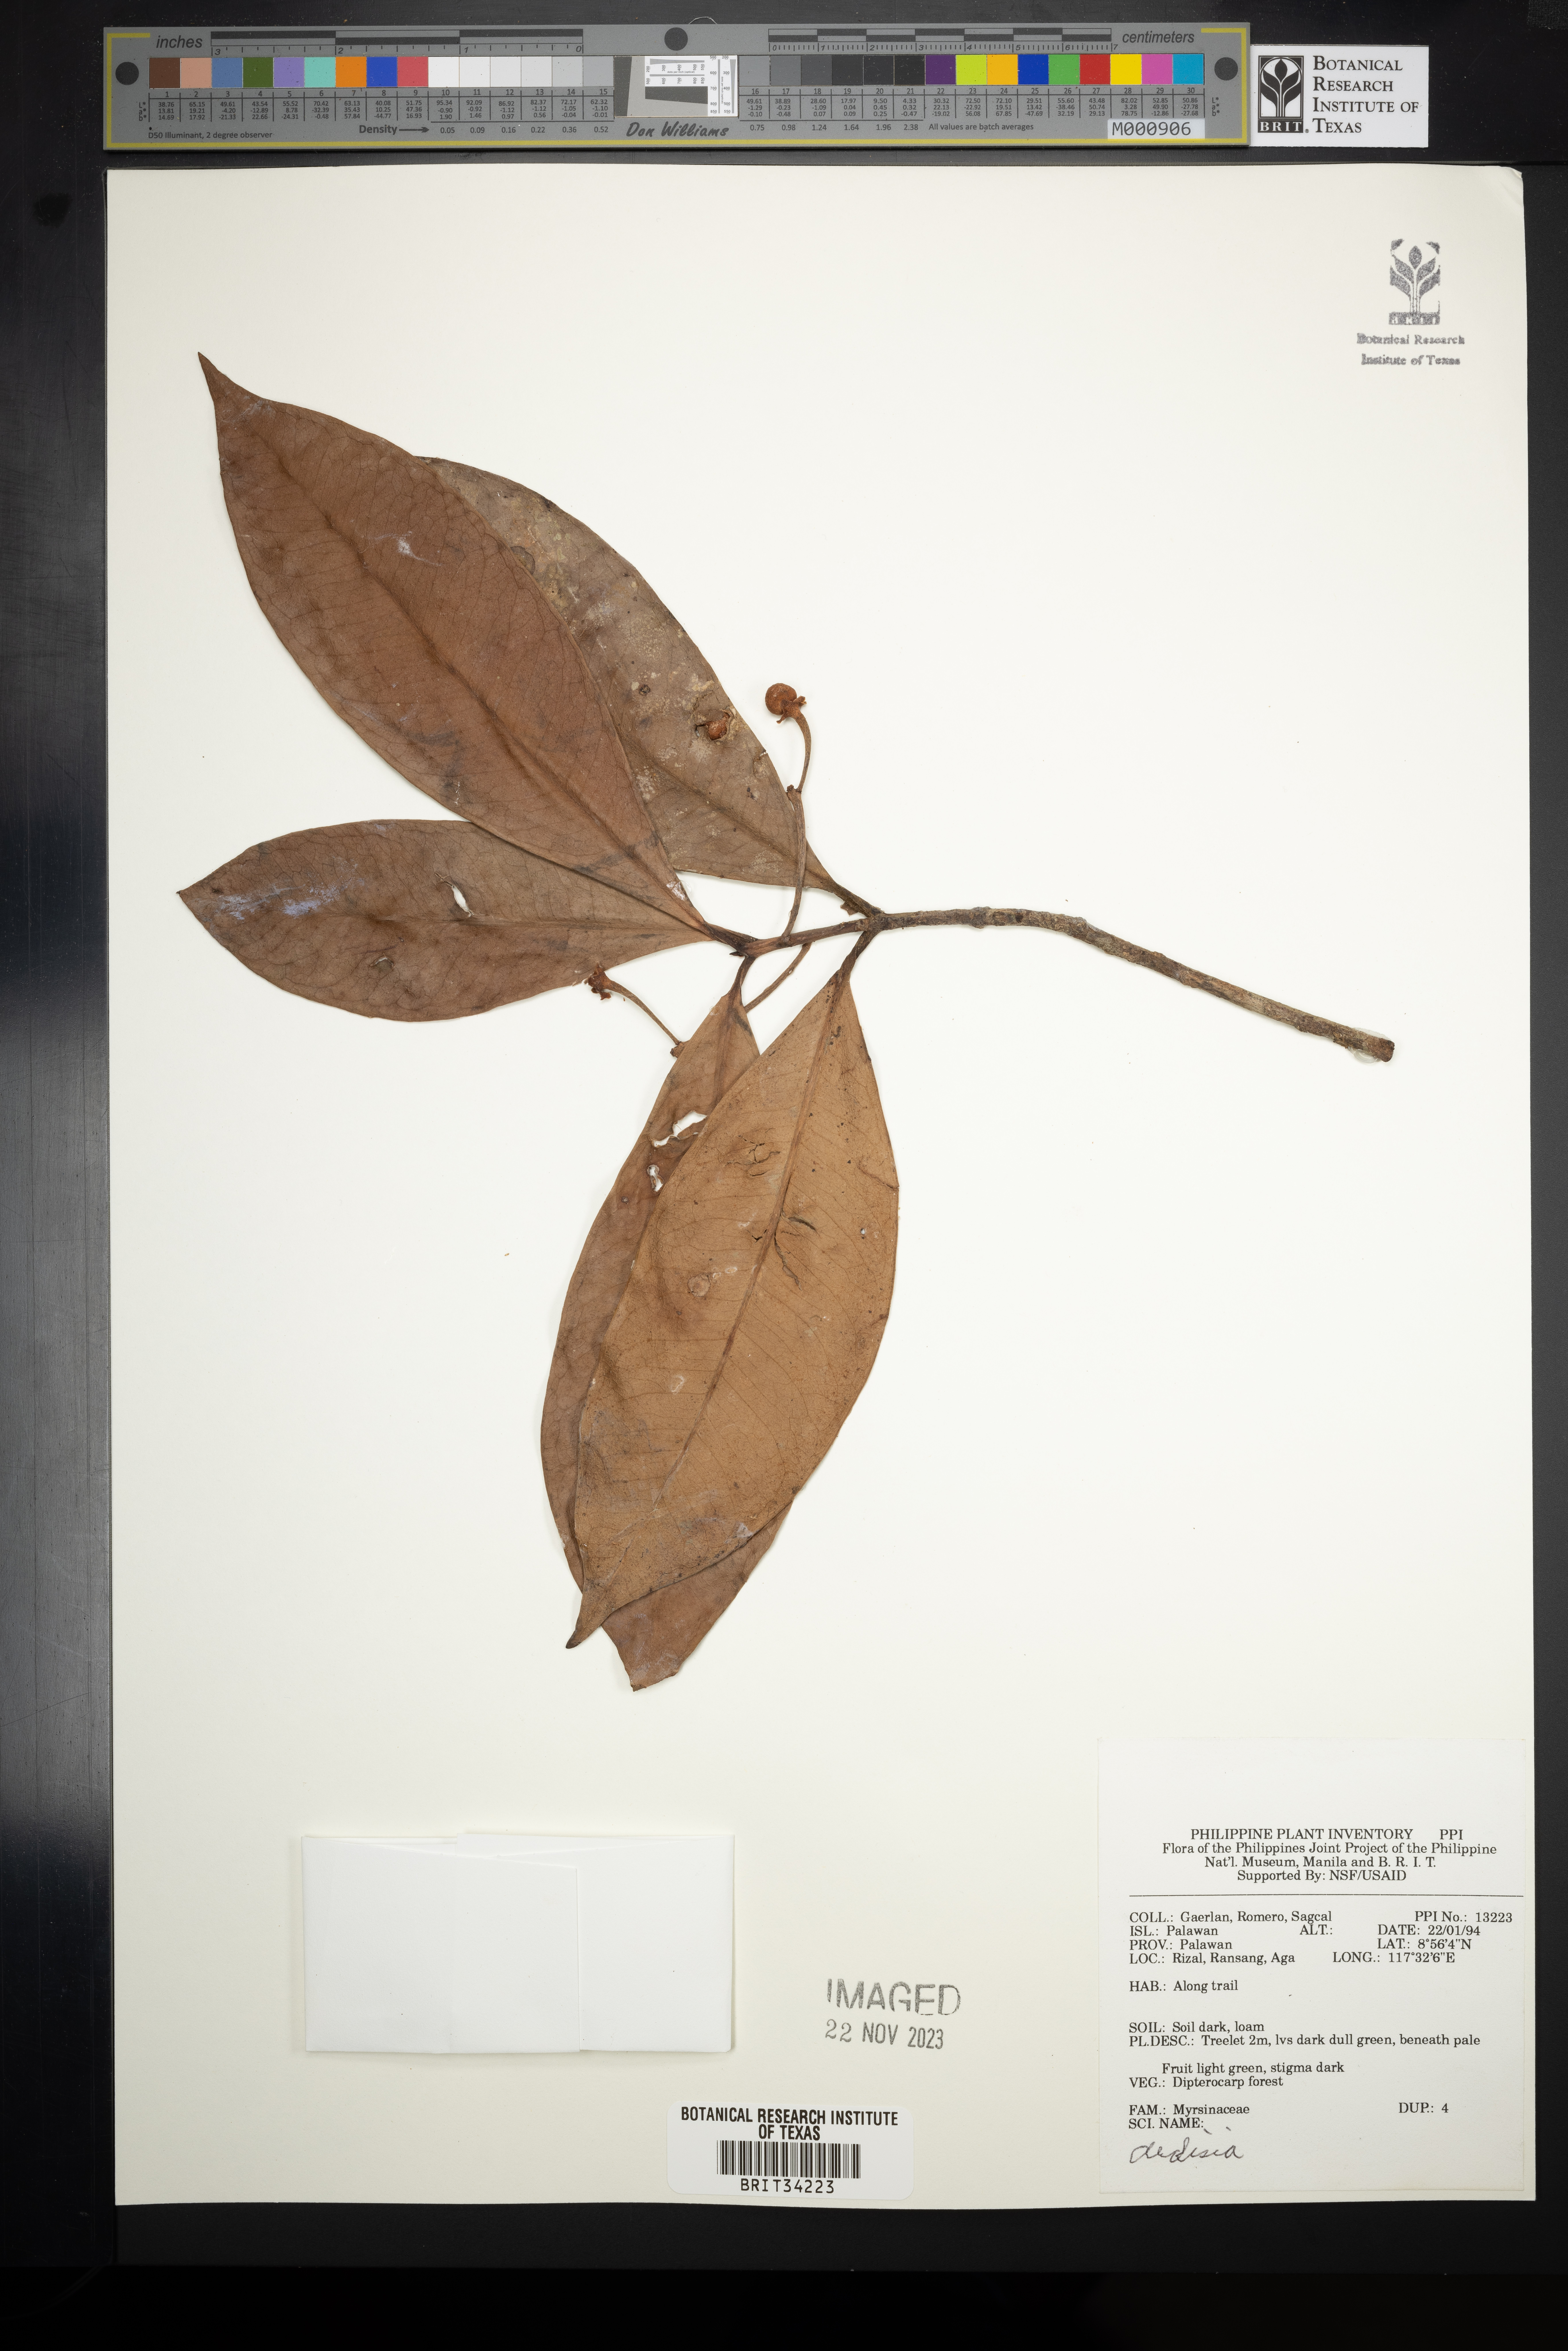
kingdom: Plantae
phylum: Tracheophyta
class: Magnoliopsida
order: Ericales
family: Primulaceae
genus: Ardisia
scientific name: Ardisia
